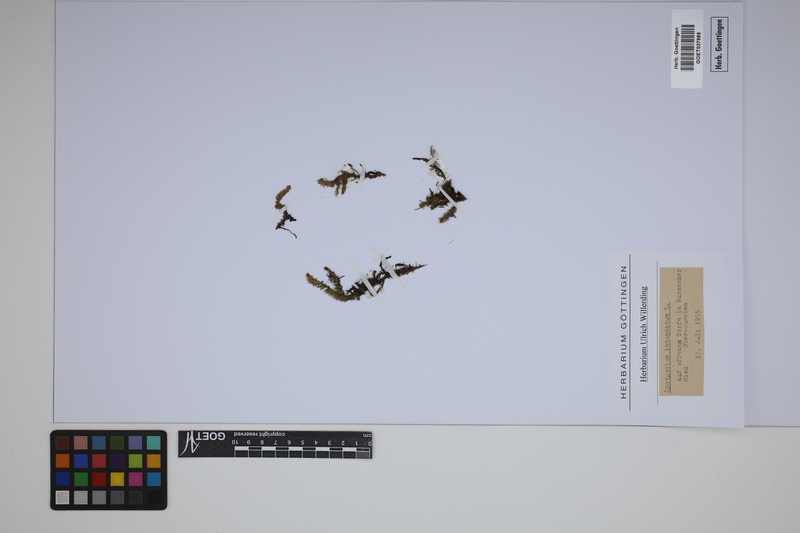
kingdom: Plantae
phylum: Tracheophyta
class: Lycopodiopsida
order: Lycopodiales
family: Lycopodiaceae
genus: Lycopodiella
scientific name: Lycopodiella inundata
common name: Marsh clubmoss
